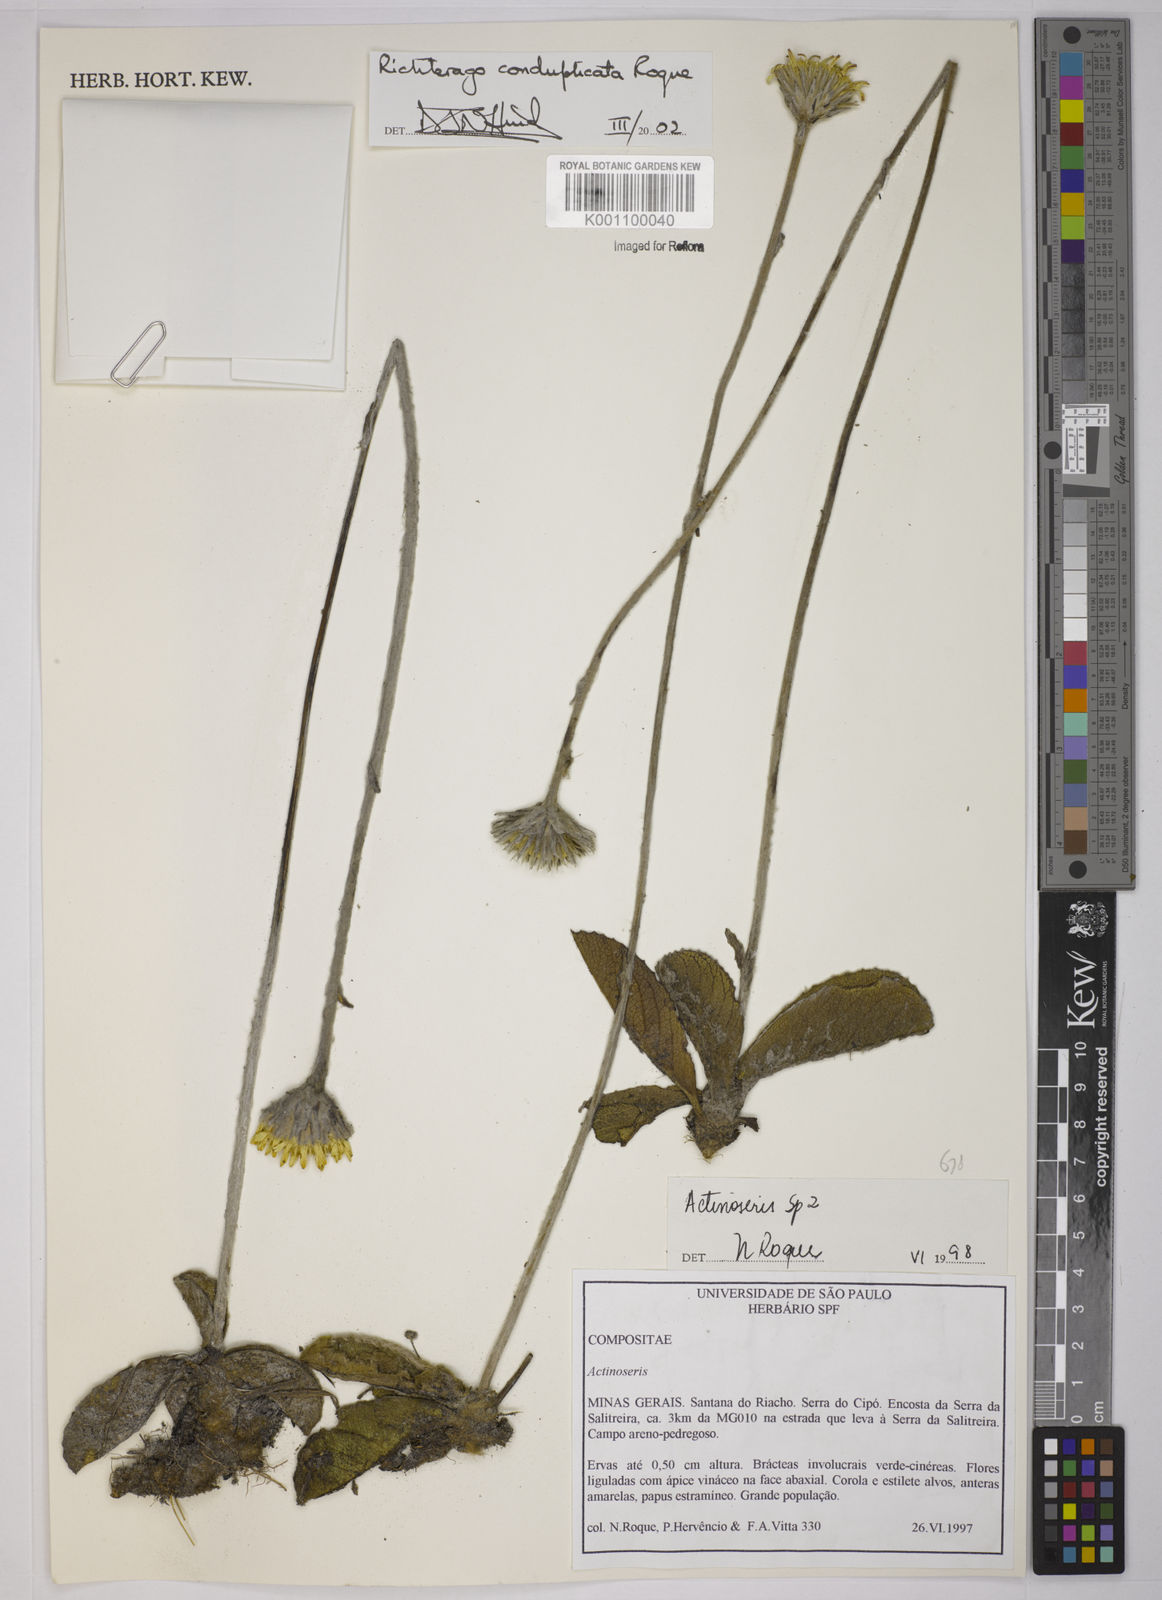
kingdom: Plantae
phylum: Tracheophyta
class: Magnoliopsida
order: Asterales
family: Asteraceae
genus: Richterago
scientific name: Richterago conduplicata
